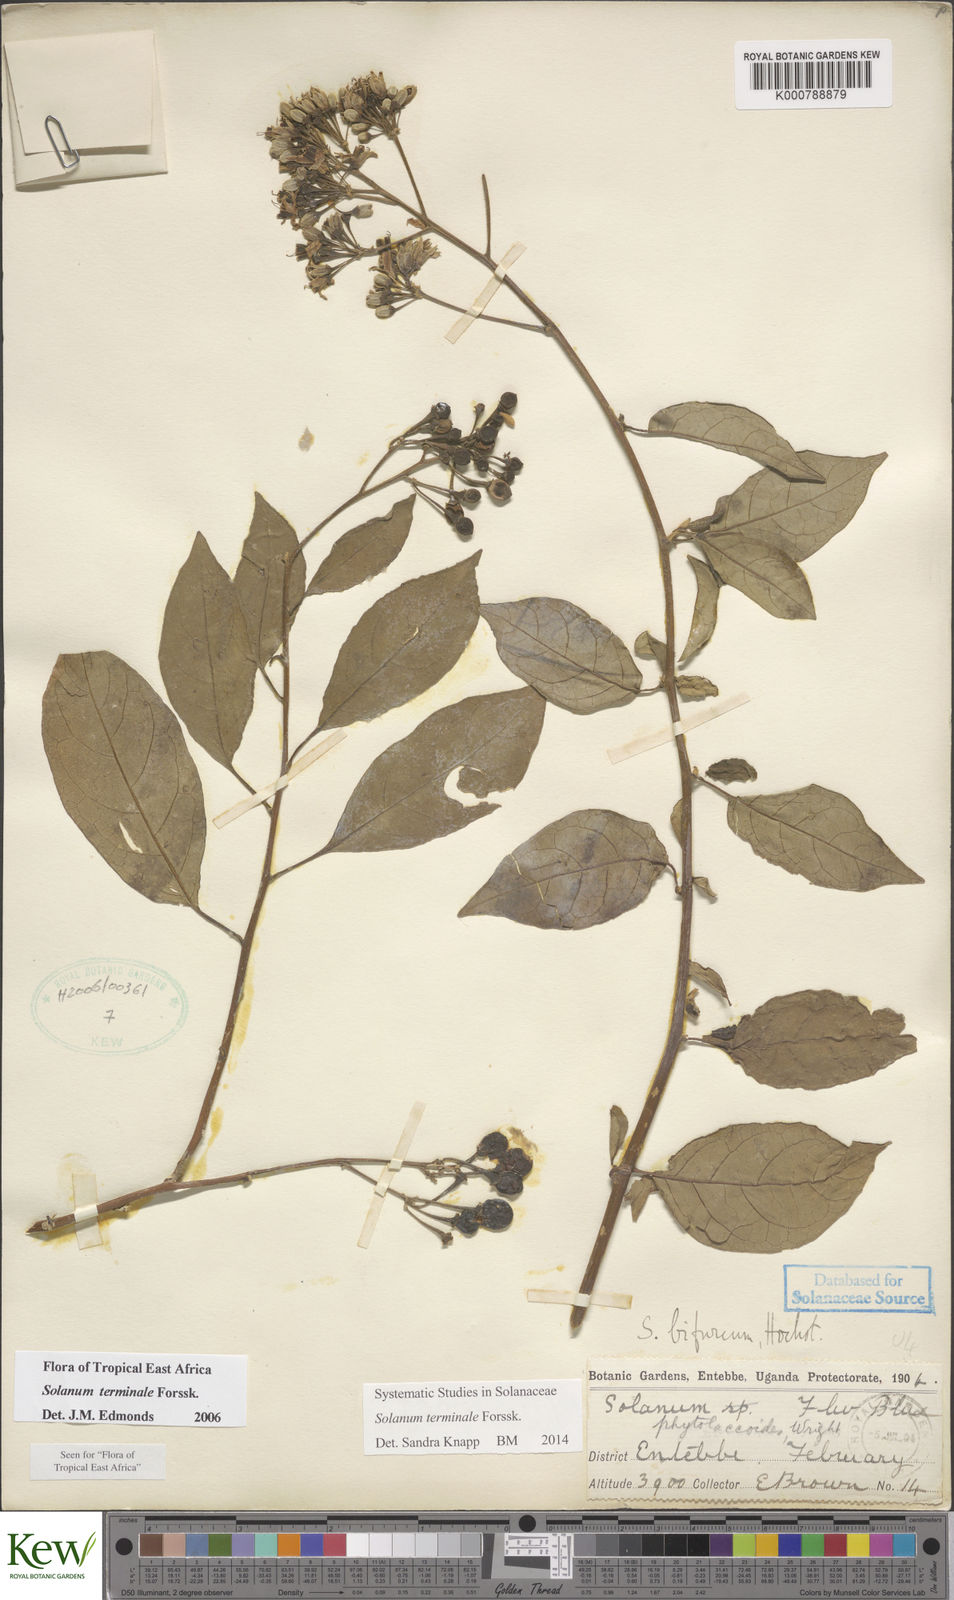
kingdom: Plantae
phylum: Tracheophyta
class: Magnoliopsida
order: Solanales
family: Solanaceae
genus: Solanum
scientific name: Solanum terminale
